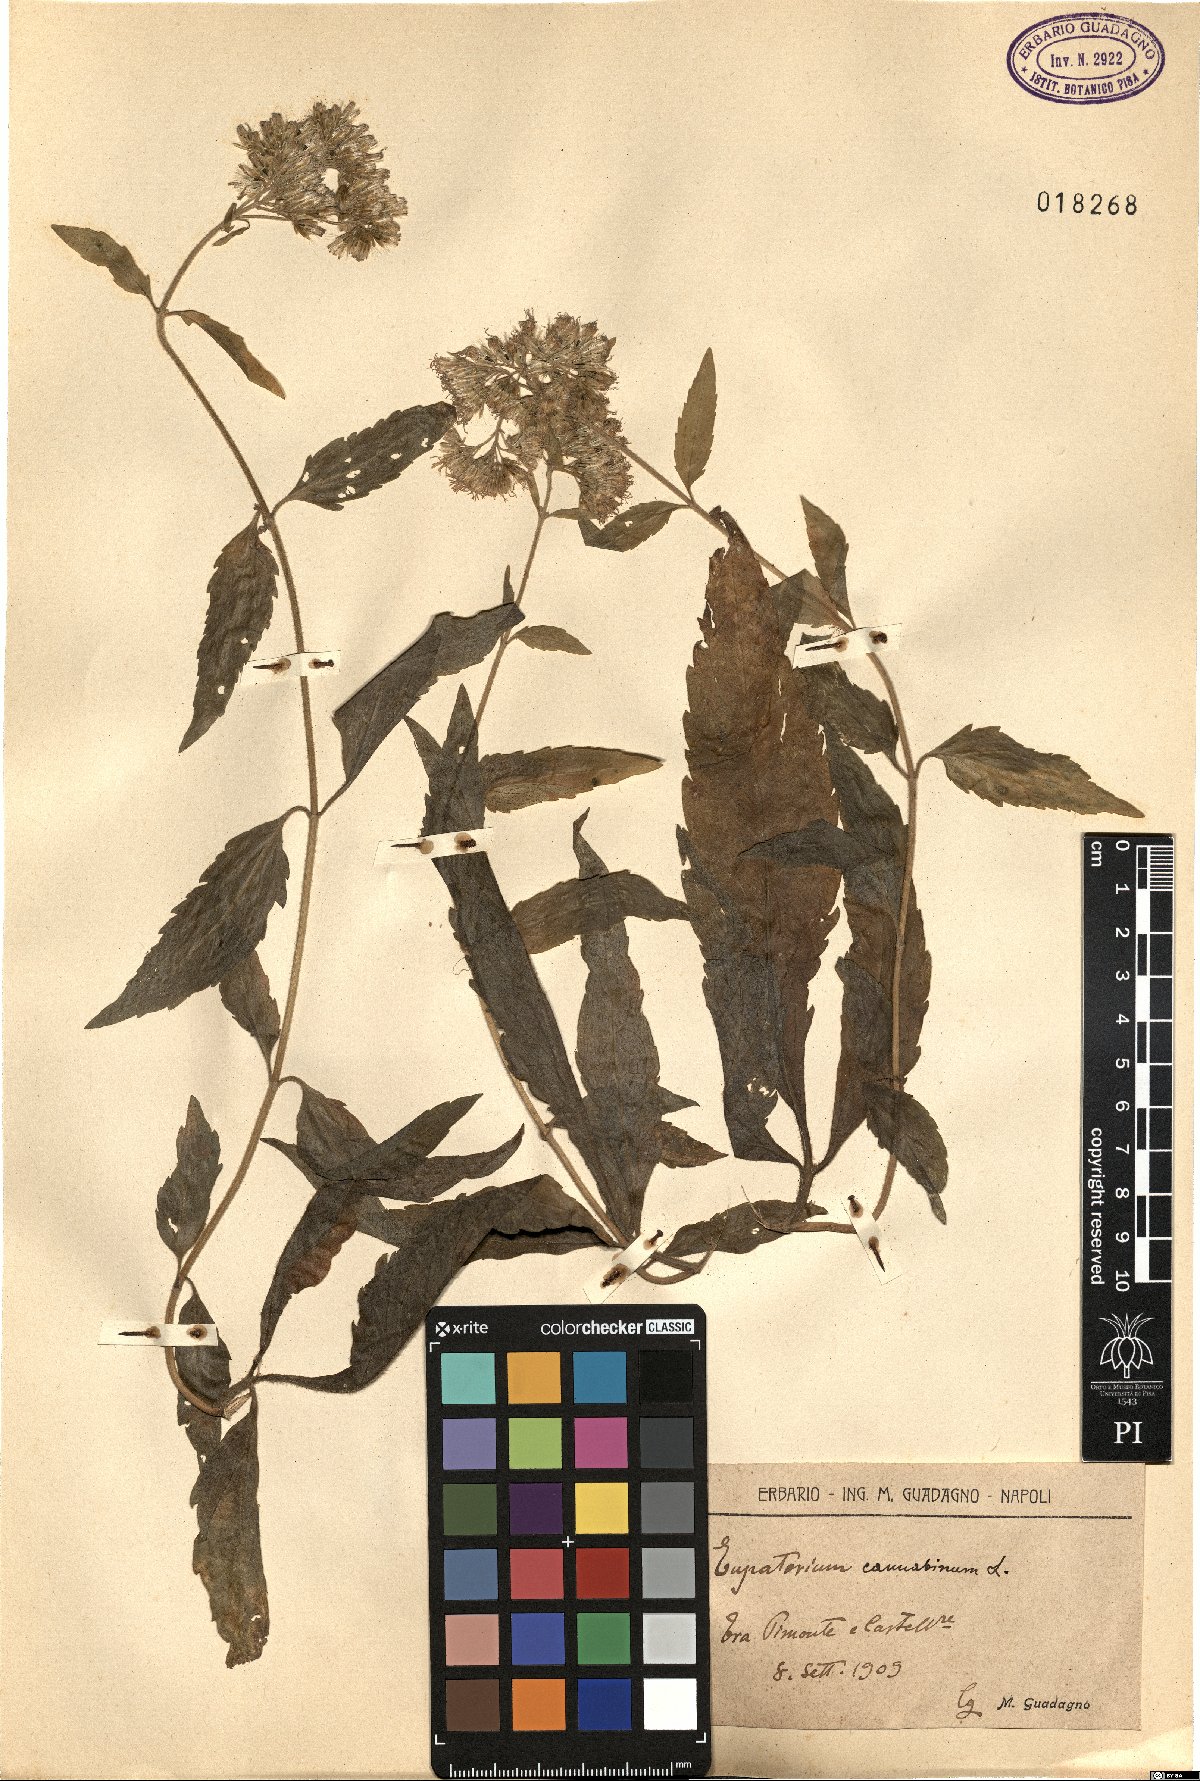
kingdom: Plantae
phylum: Tracheophyta
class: Magnoliopsida
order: Asterales
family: Asteraceae
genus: Eupatorium
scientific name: Eupatorium cannabinum
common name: Hemp-agrimony
